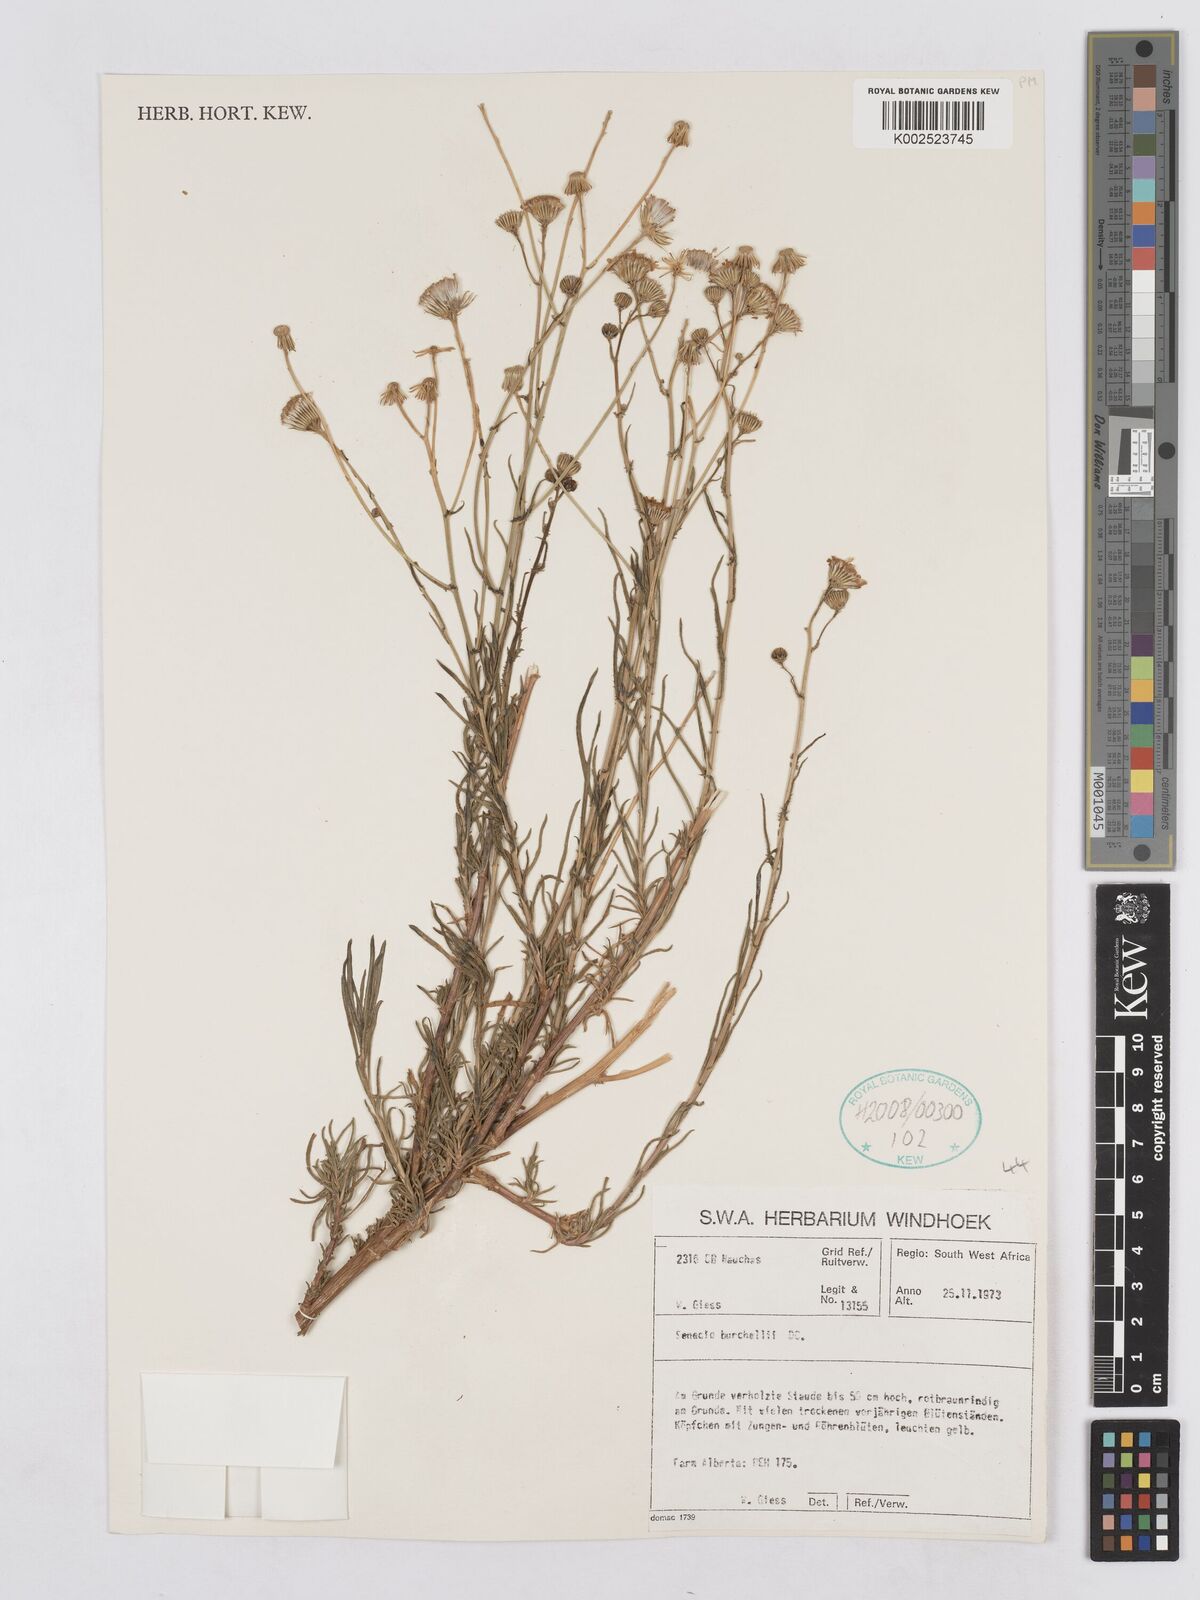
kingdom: Plantae
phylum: Tracheophyta
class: Magnoliopsida
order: Asterales
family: Asteraceae
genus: Senecio
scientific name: Senecio burchellii
